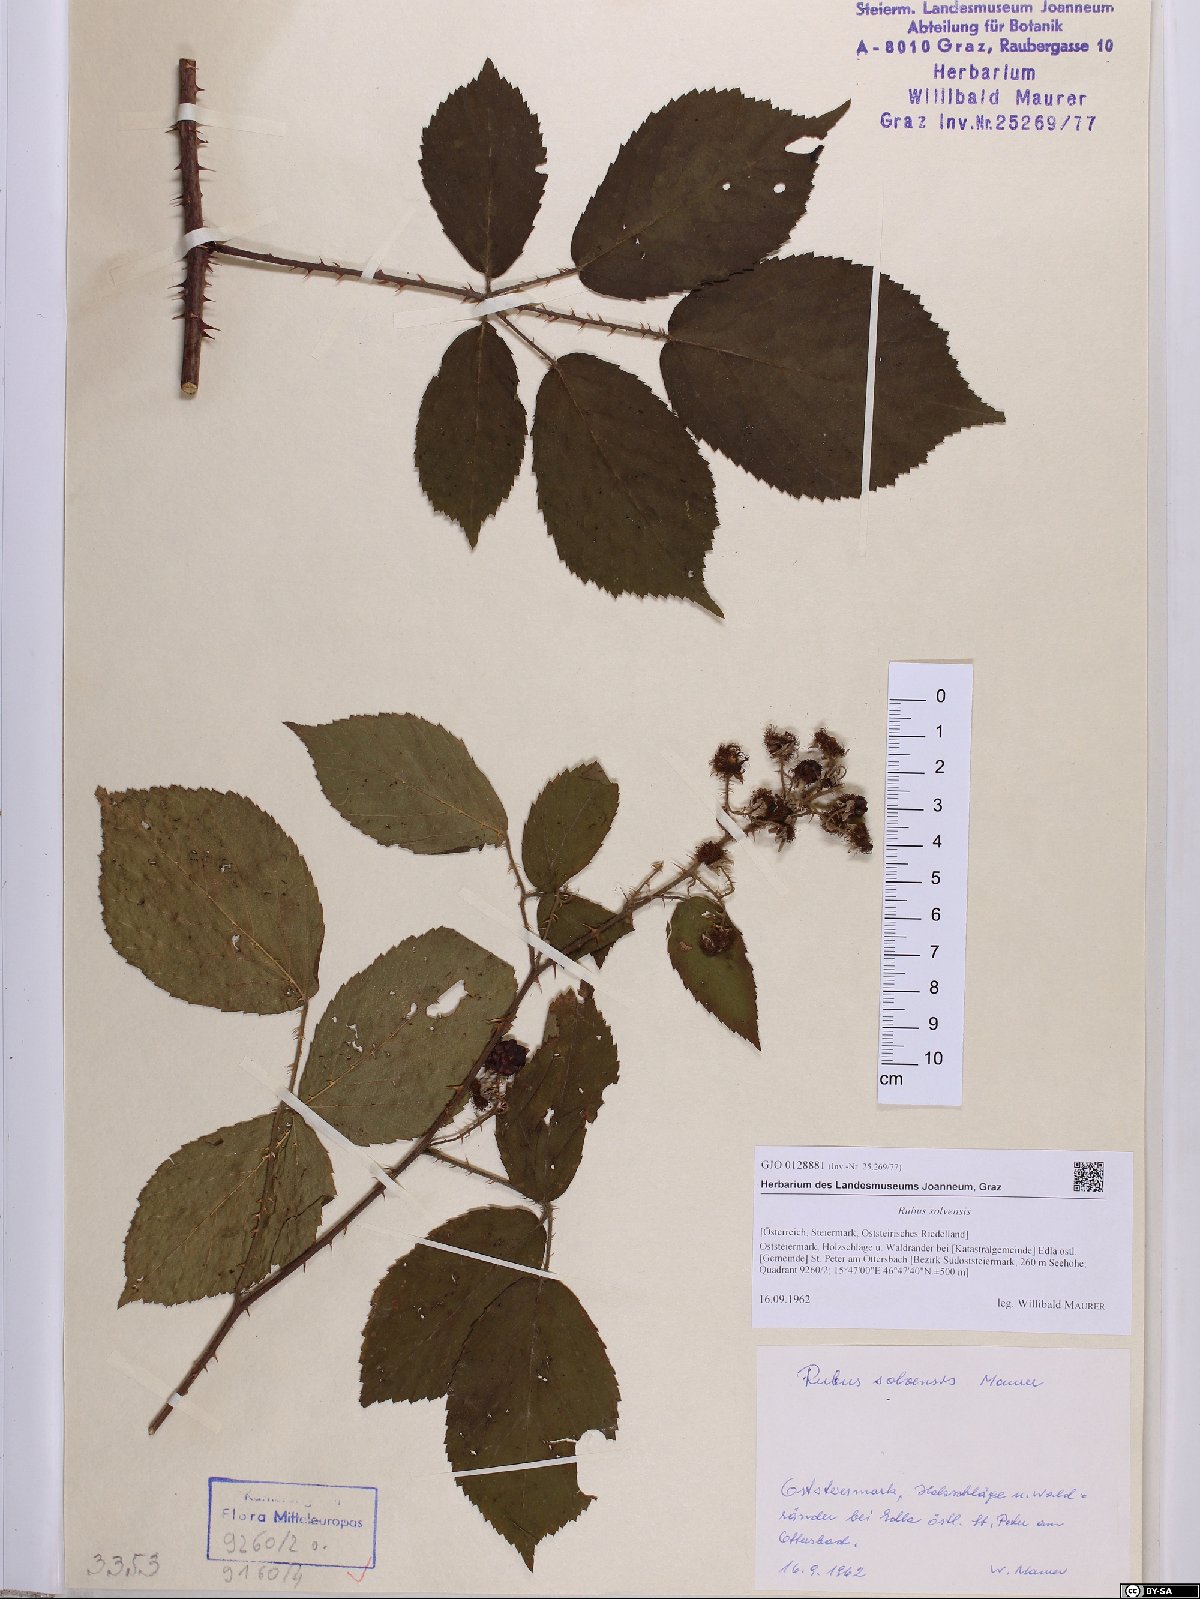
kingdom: Plantae
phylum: Tracheophyta
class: Magnoliopsida
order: Rosales
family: Rosaceae
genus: Rubus
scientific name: Rubus solvensis
